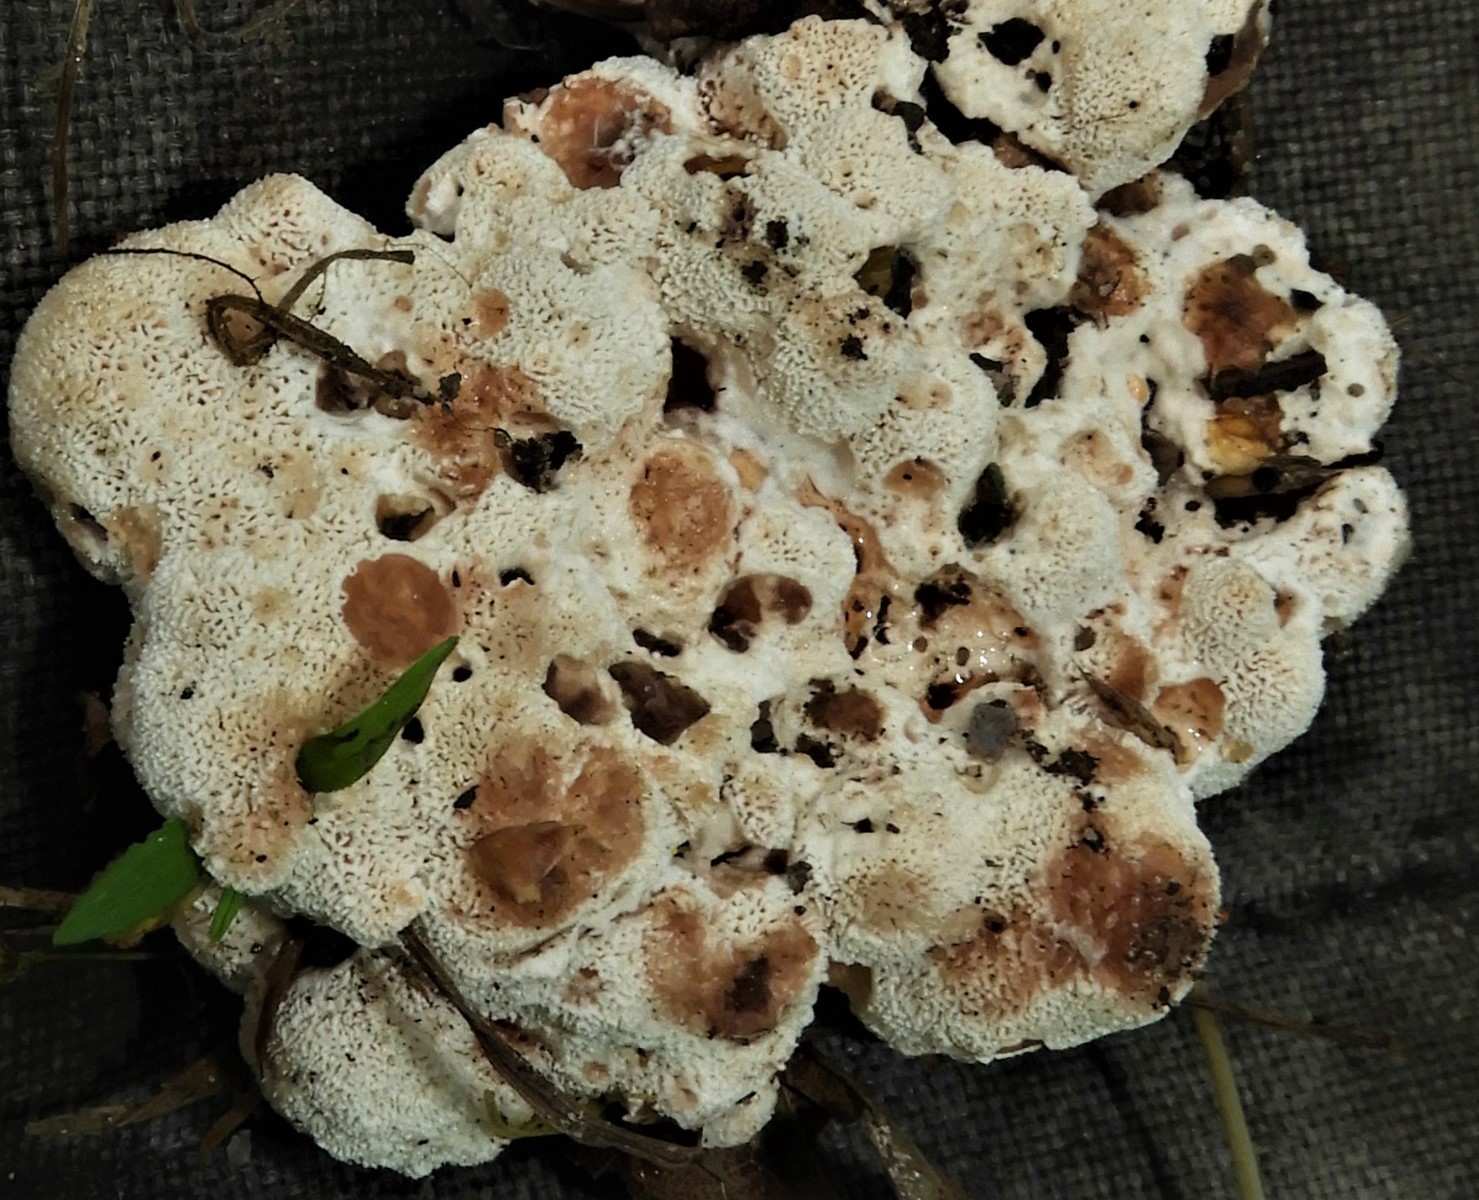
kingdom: Fungi
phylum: Basidiomycota
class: Agaricomycetes
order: Polyporales
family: Podoscyphaceae
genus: Abortiporus
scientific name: Abortiporus biennis
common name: rødmende pjalteporesvamp
